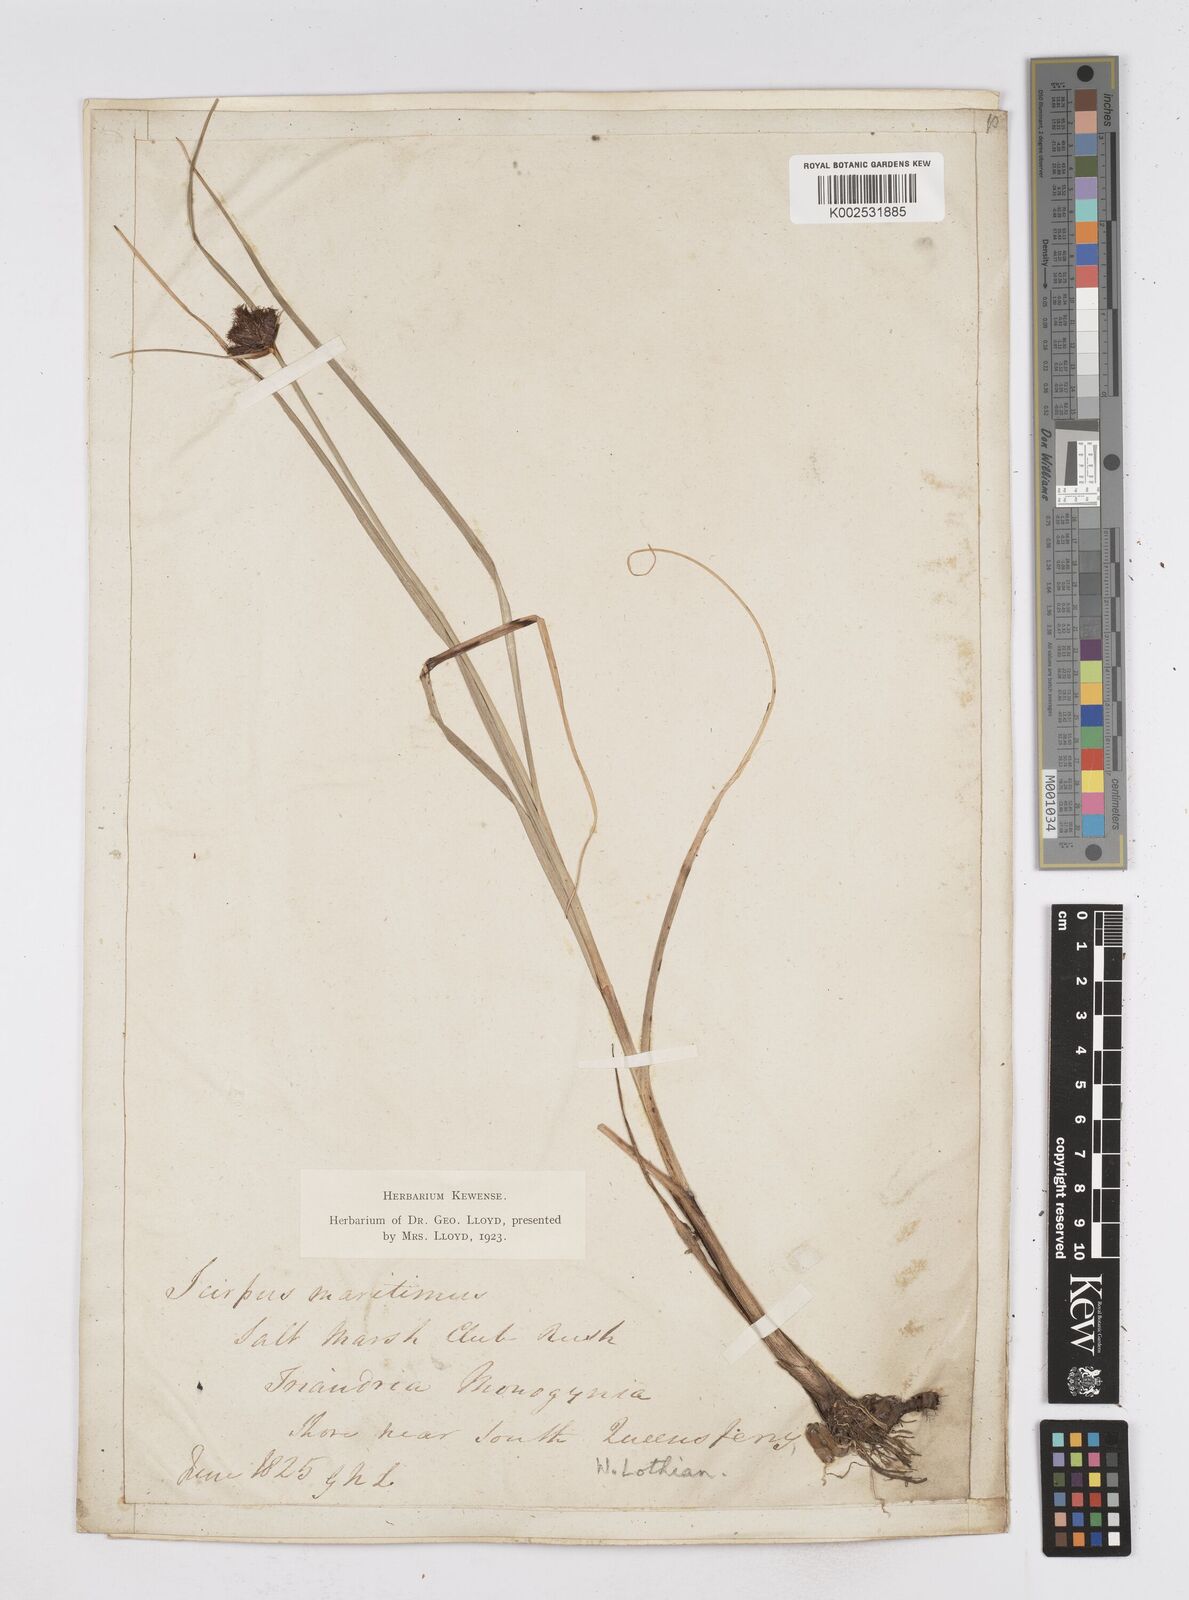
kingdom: Plantae
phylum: Tracheophyta
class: Liliopsida
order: Poales
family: Cyperaceae
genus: Bolboschoenus
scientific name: Bolboschoenus maritimus
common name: Sea club-rush
